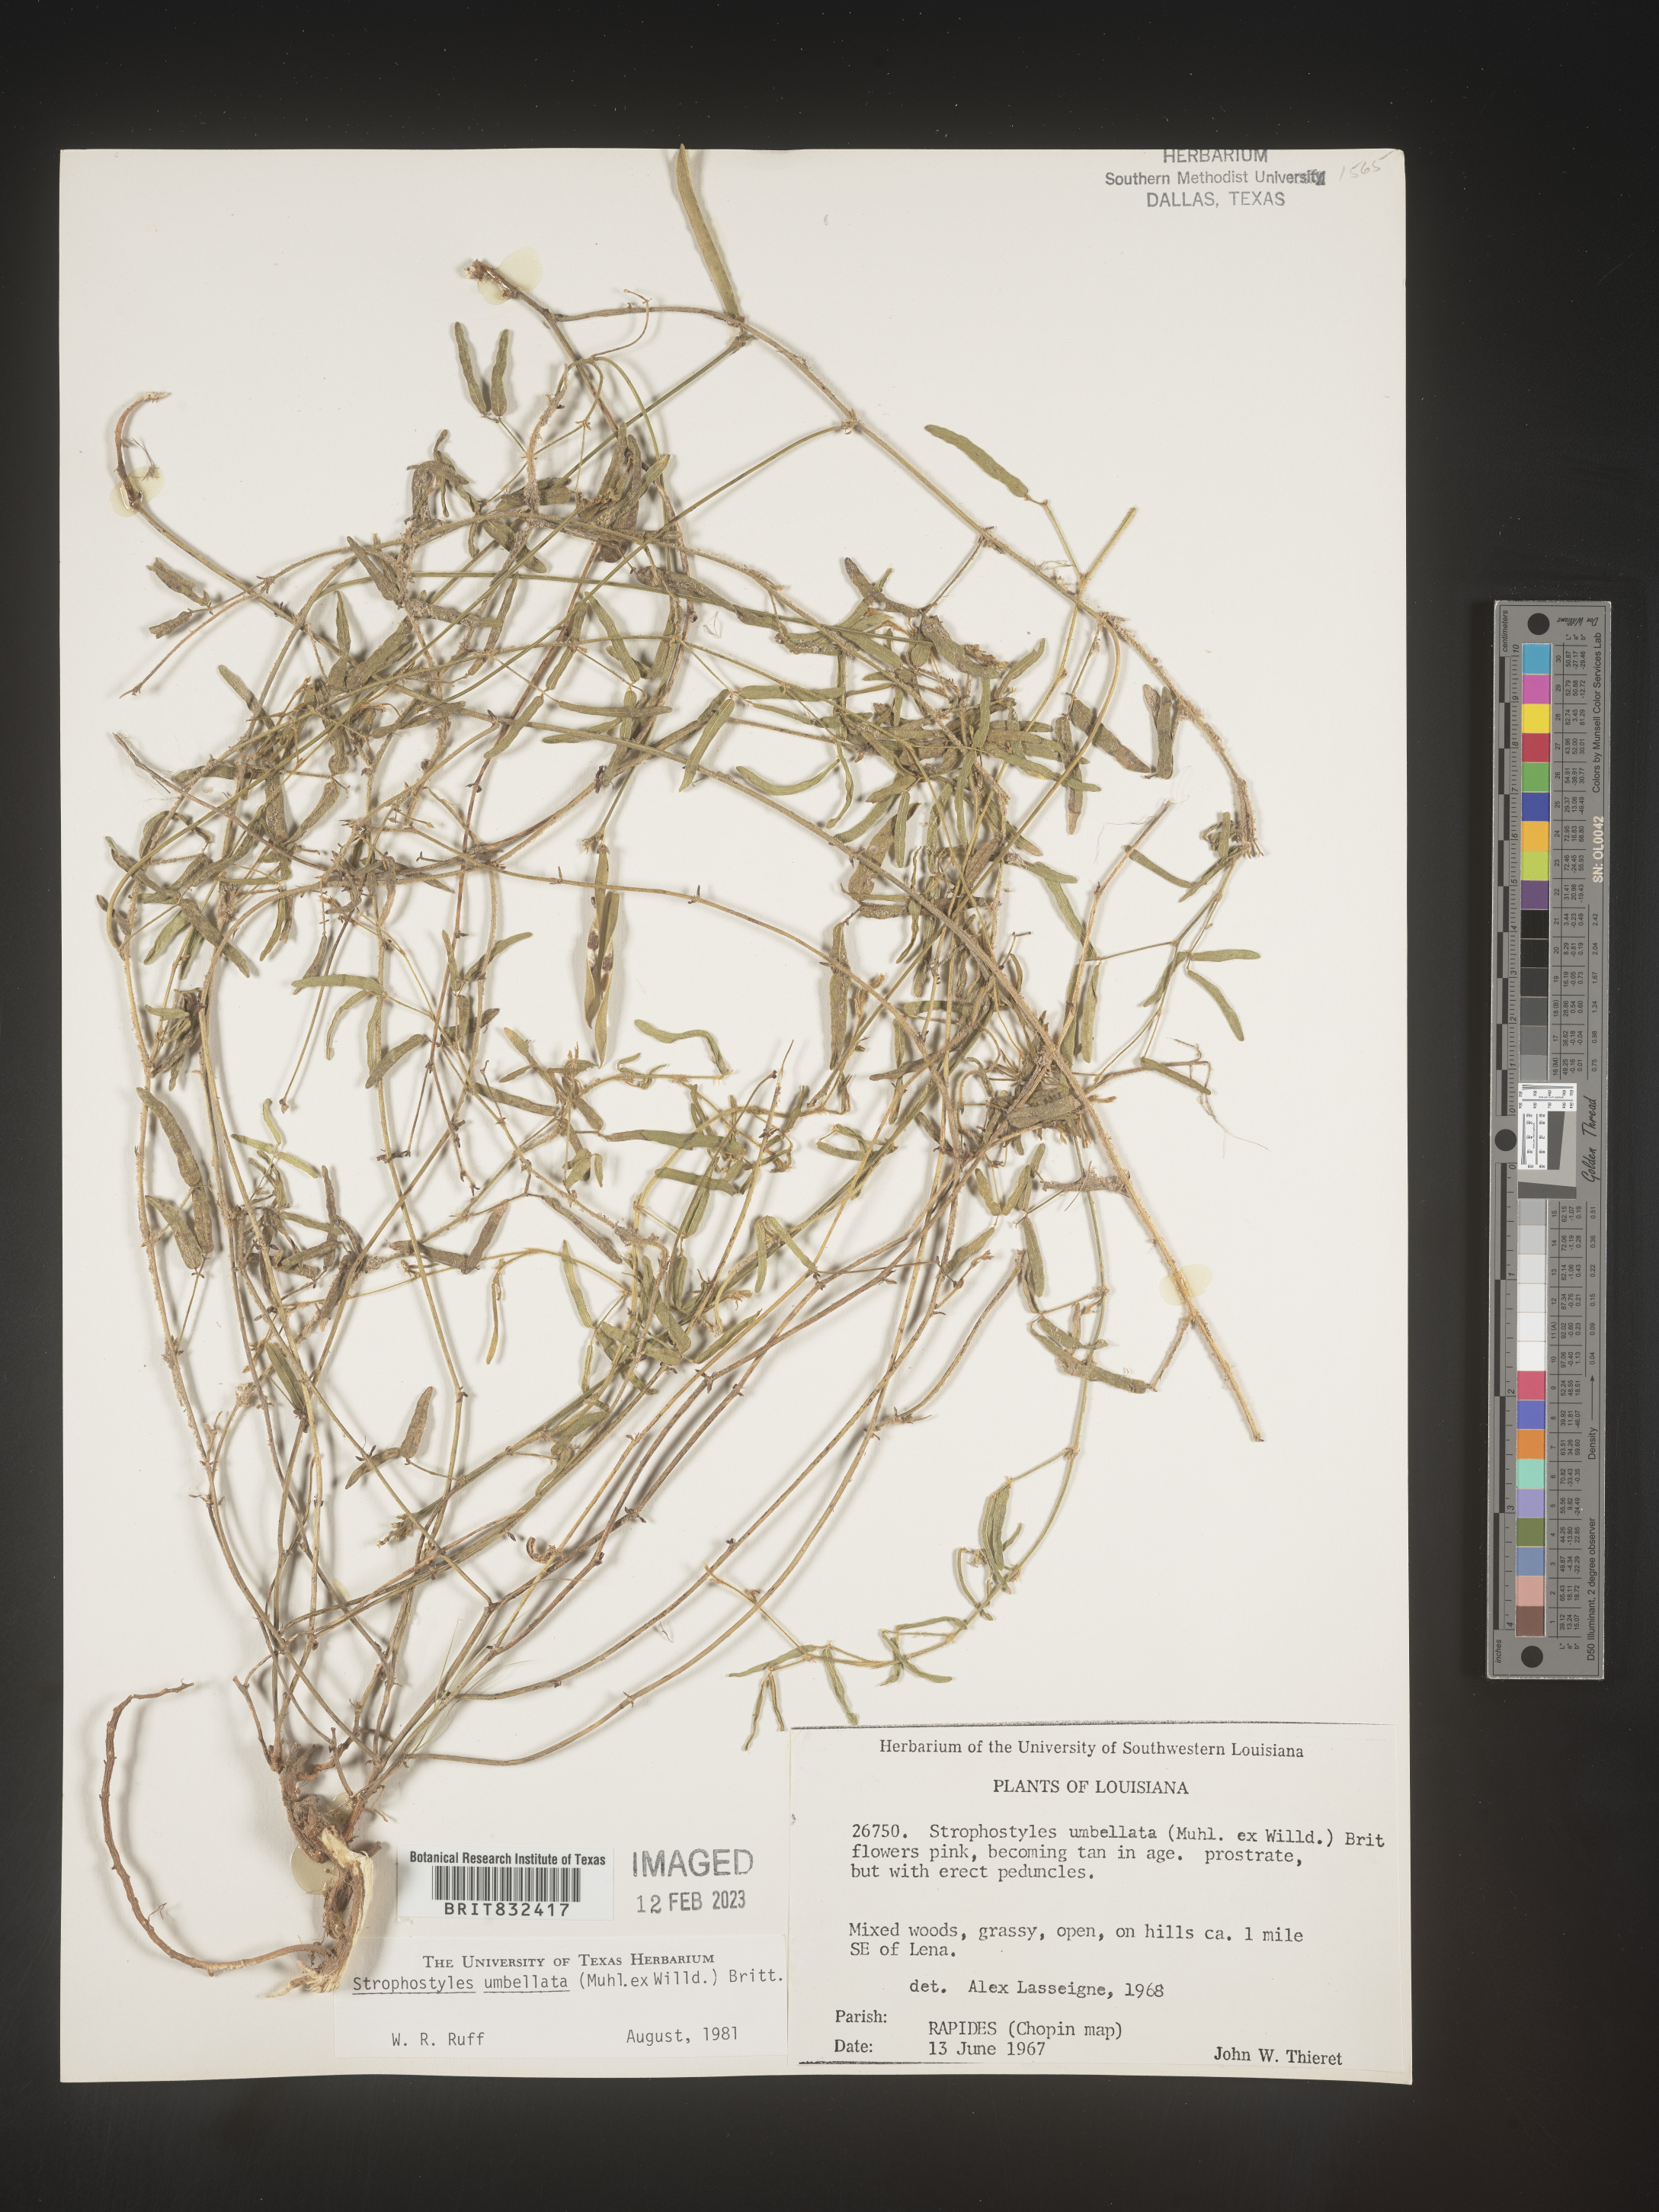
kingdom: Plantae
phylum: Tracheophyta
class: Magnoliopsida
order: Fabales
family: Fabaceae
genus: Strophostyles
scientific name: Strophostyles umbellata
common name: Perennial wild bean
